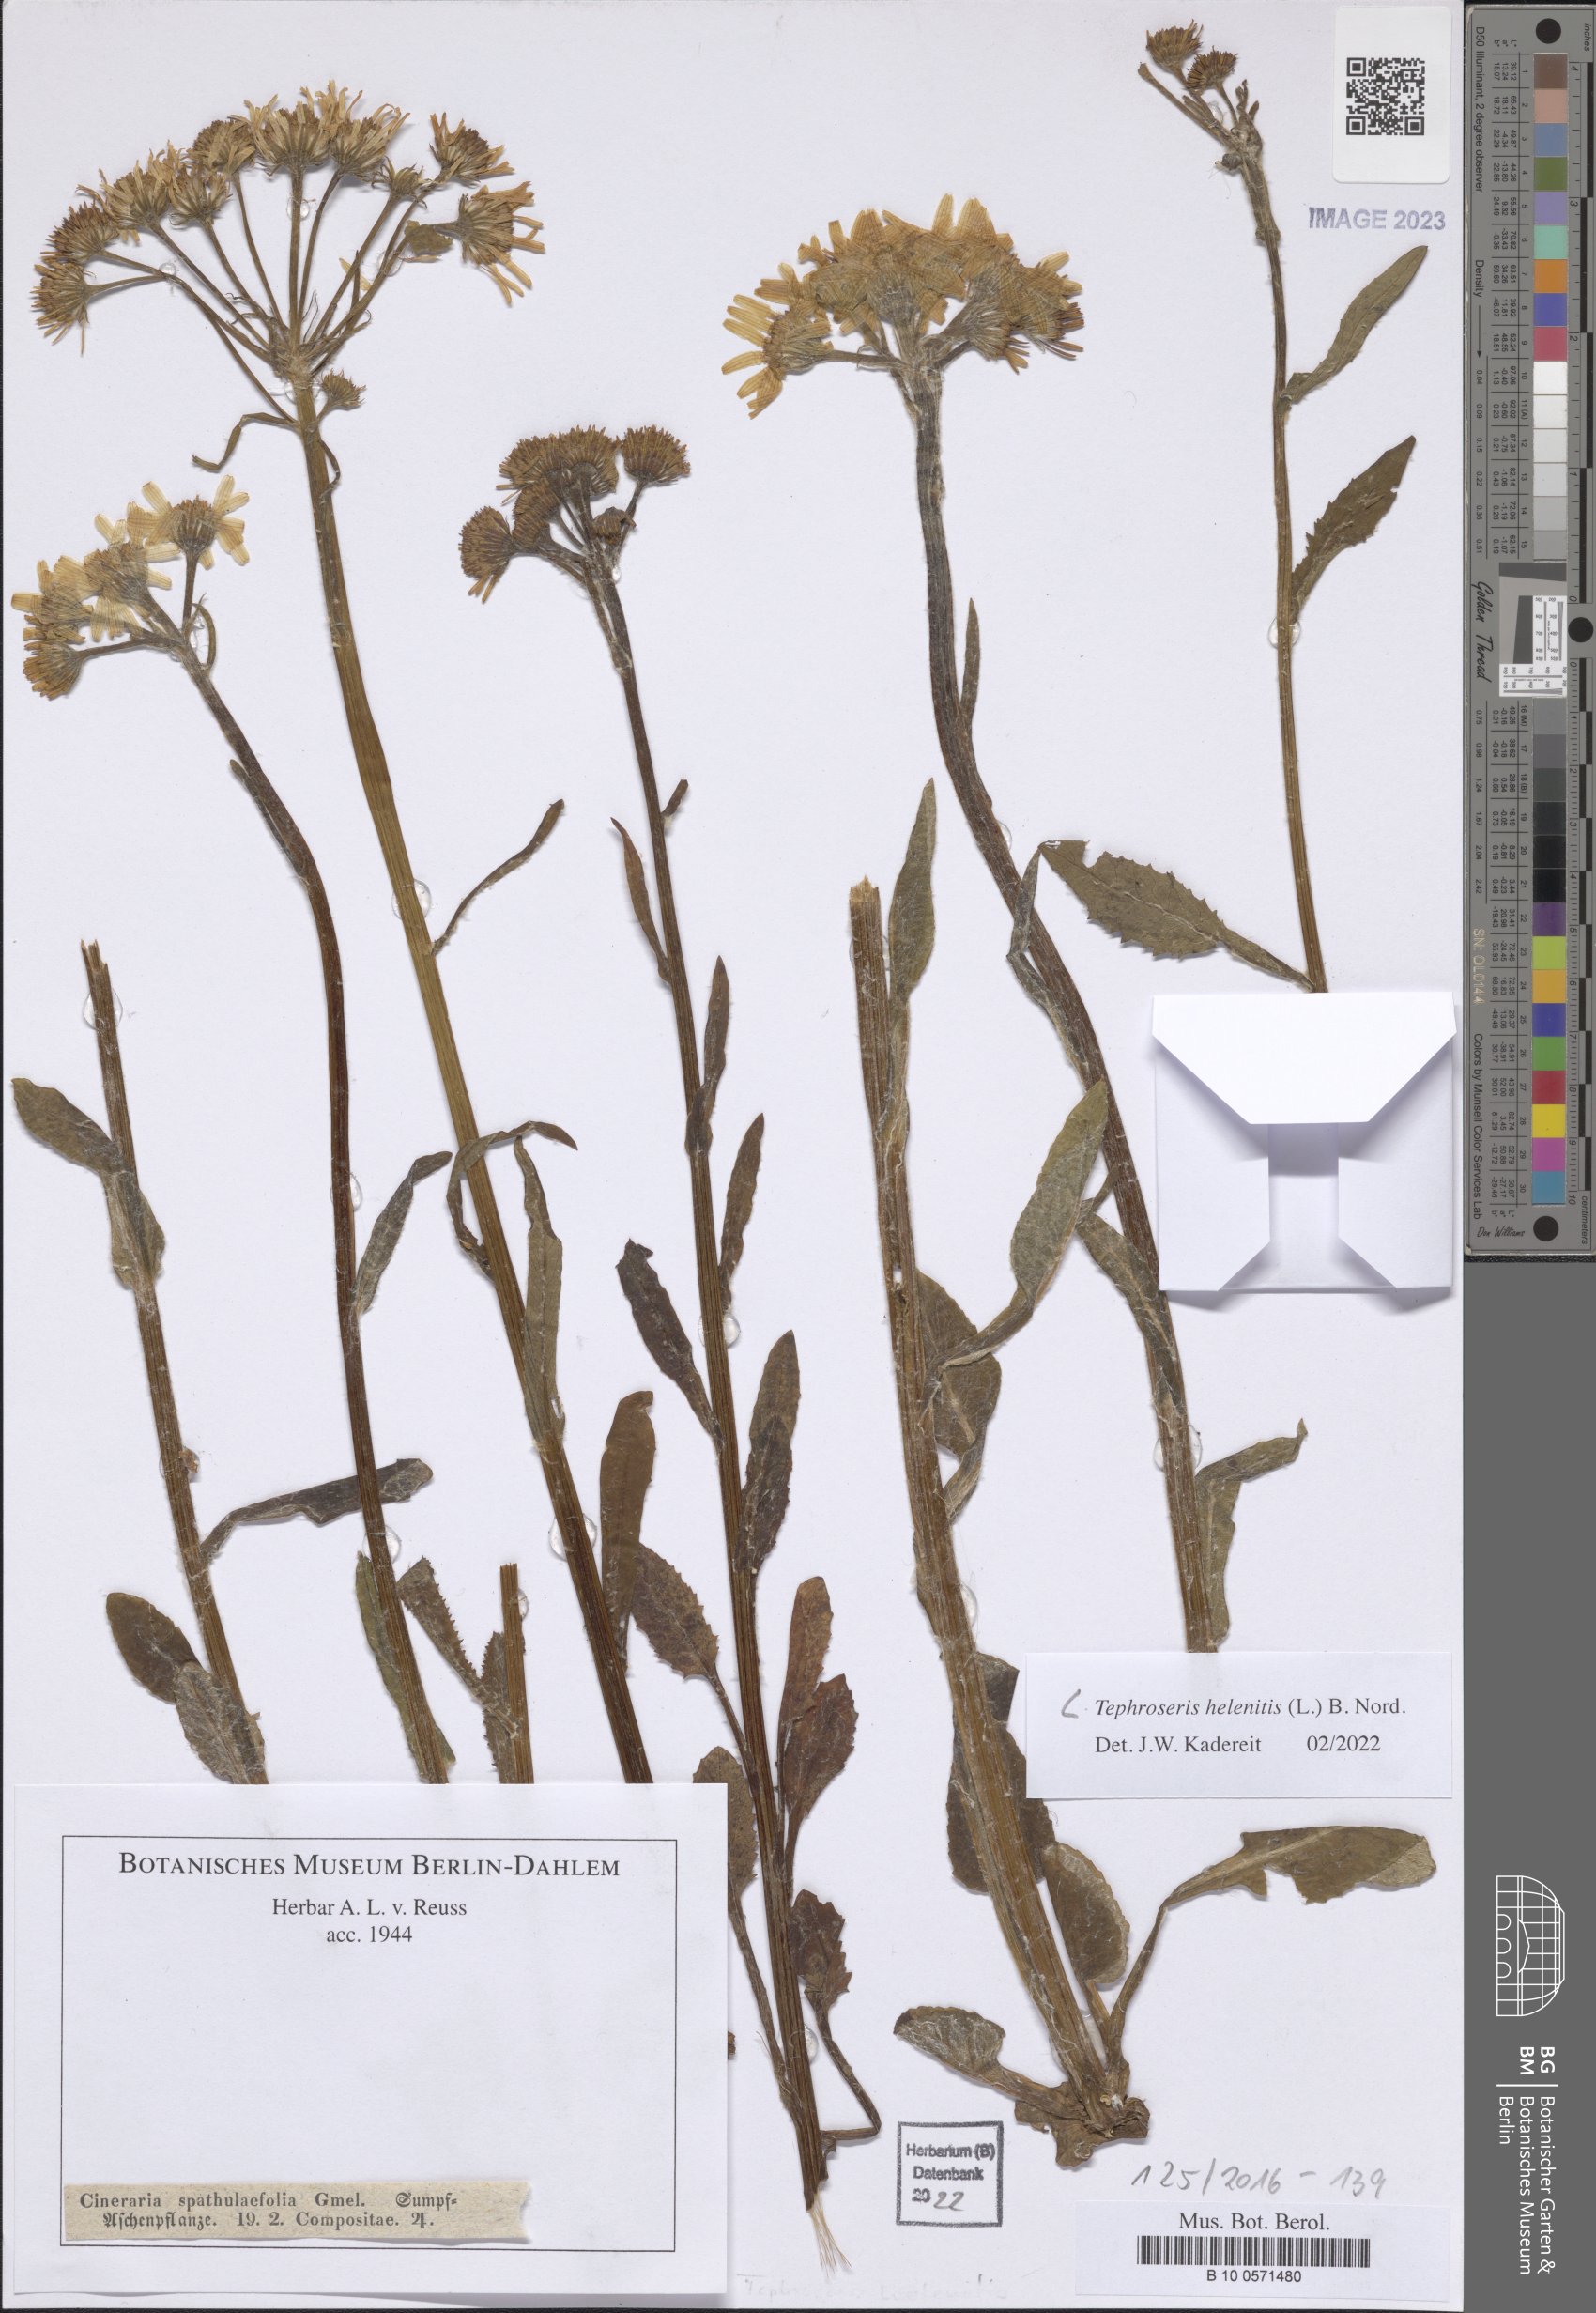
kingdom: Plantae
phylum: Tracheophyta
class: Magnoliopsida
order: Asterales
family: Asteraceae
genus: Tephroseris
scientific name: Tephroseris helenitis
